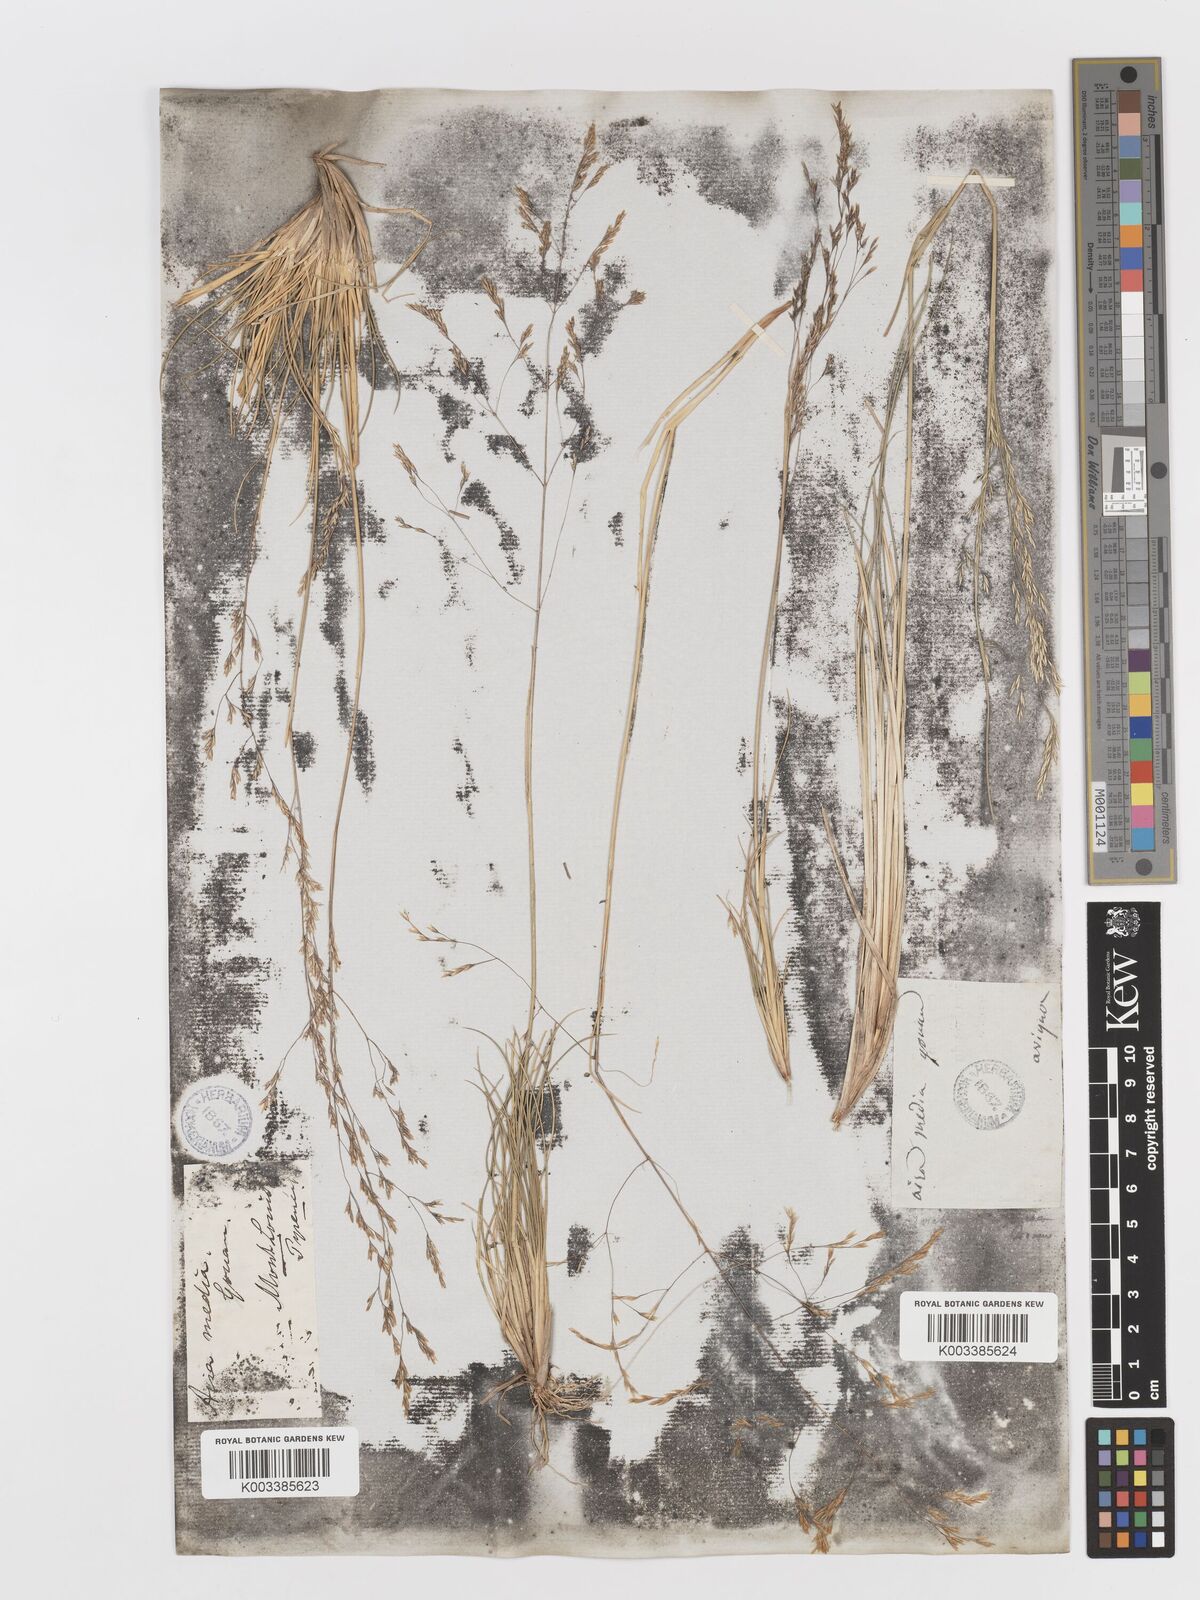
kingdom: Plantae
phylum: Tracheophyta
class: Liliopsida
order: Poales
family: Poaceae
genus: Deschampsia
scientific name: Deschampsia media
